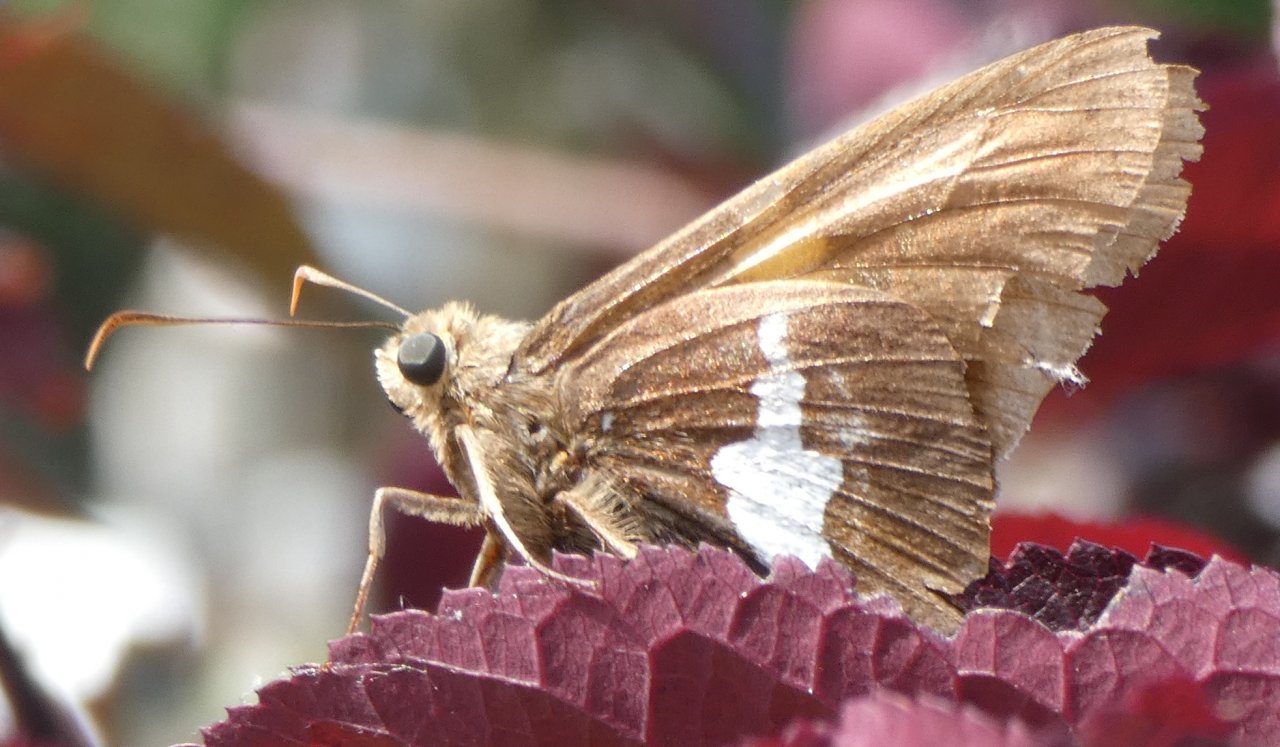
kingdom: Animalia
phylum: Arthropoda
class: Insecta
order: Lepidoptera
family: Hesperiidae
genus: Epargyreus
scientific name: Epargyreus clarus
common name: Silver-spotted Skipper
